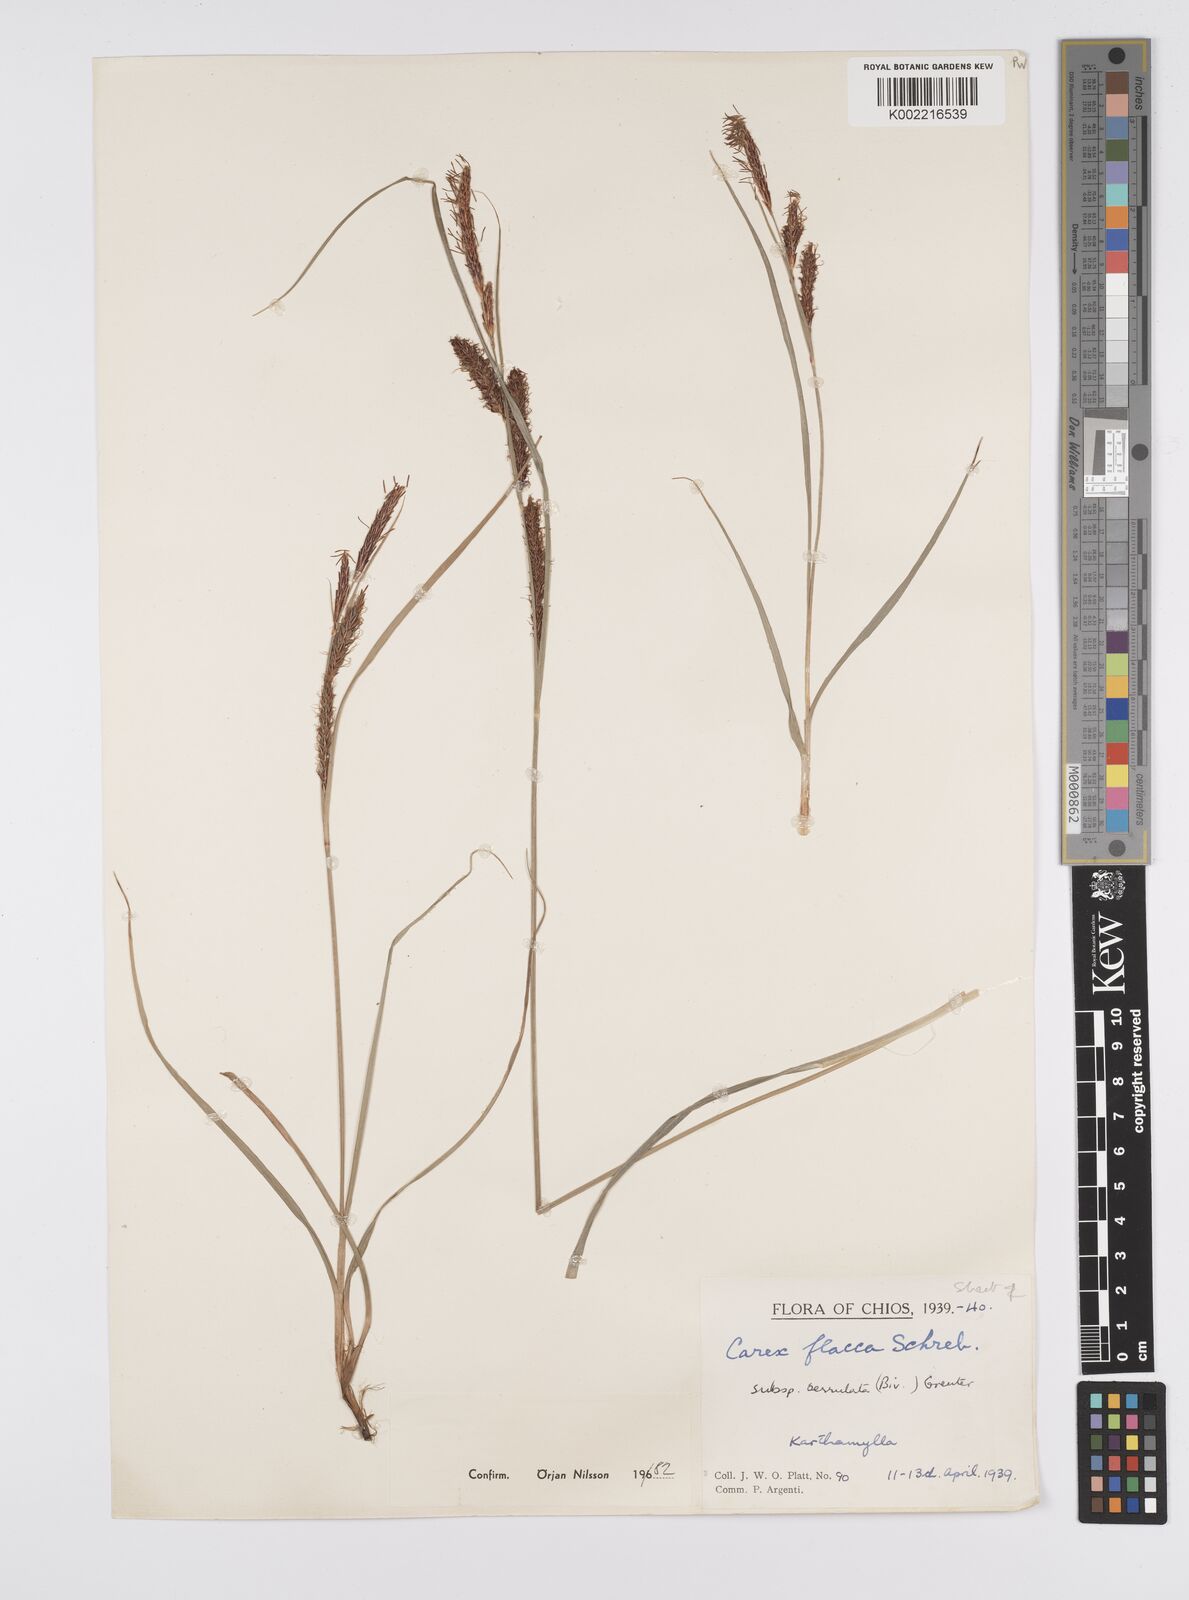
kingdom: Plantae
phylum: Tracheophyta
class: Liliopsida
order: Poales
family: Cyperaceae
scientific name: Cyperaceae
